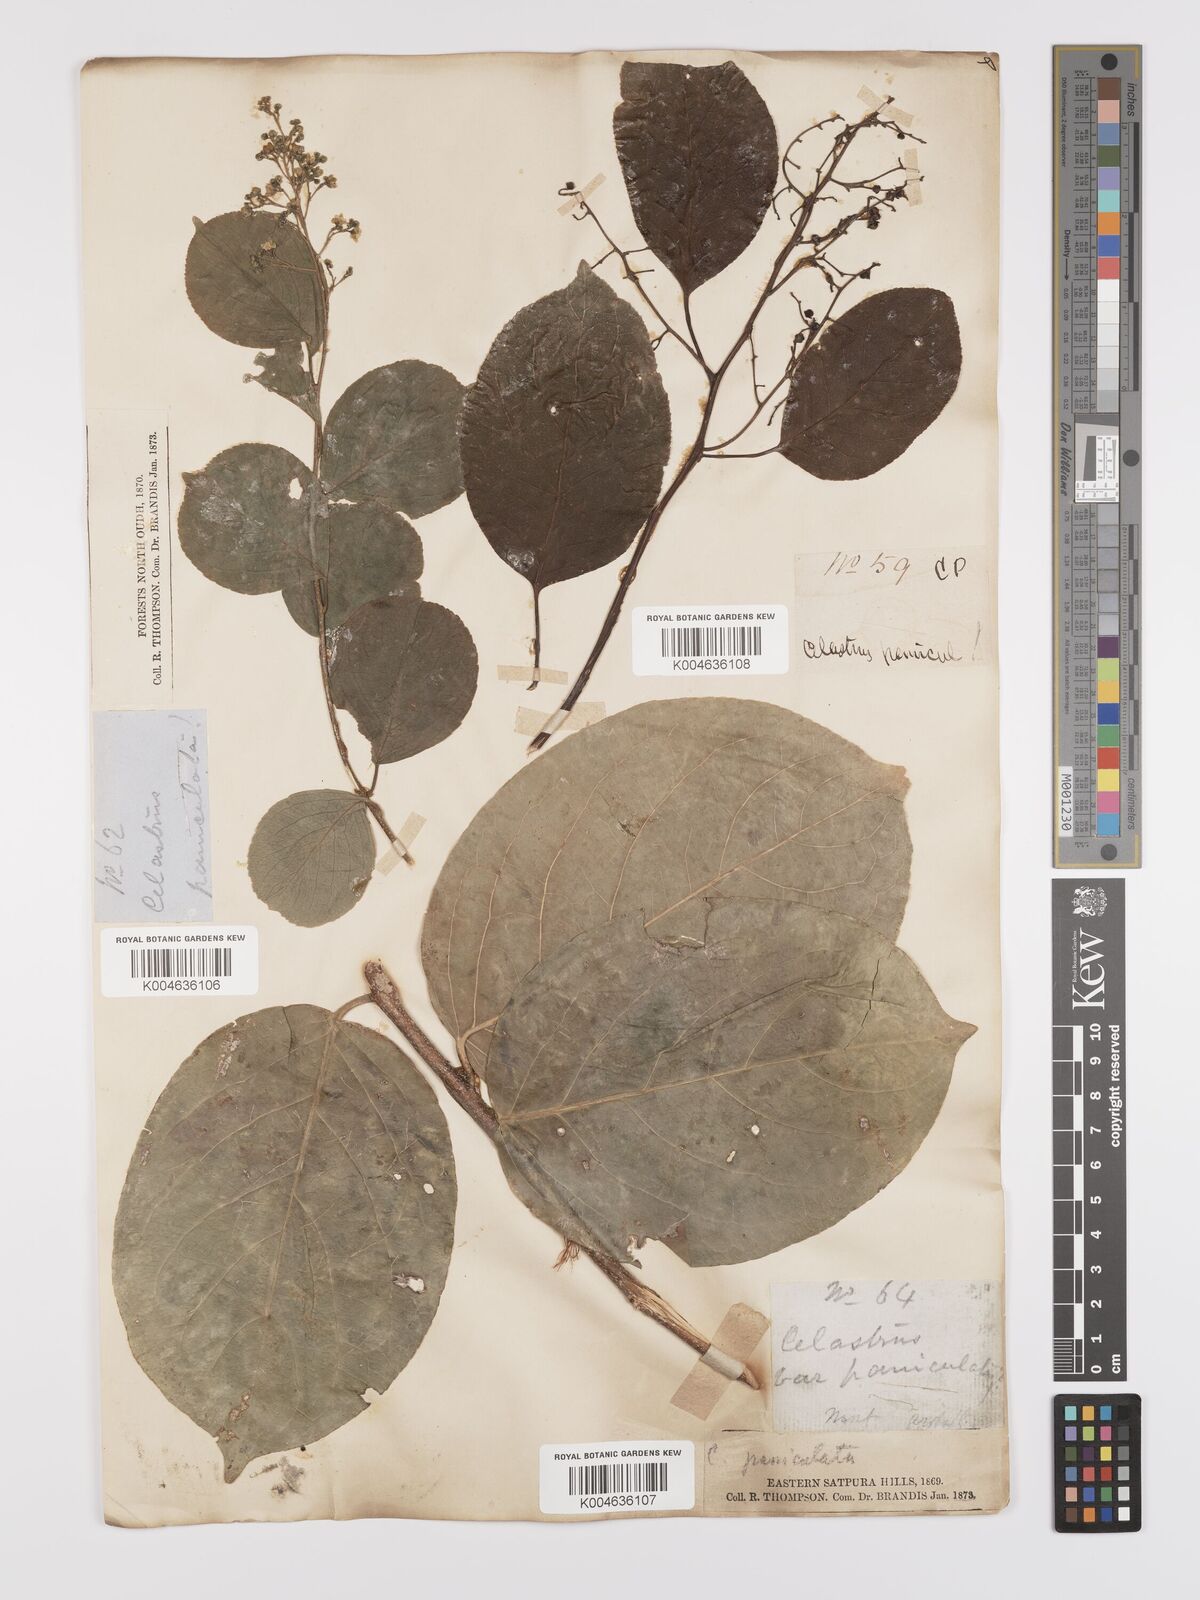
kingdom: Plantae
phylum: Tracheophyta
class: Magnoliopsida
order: Celastrales
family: Celastraceae
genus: Celastrus
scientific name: Celastrus paniculatus
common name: Oriental bittersweet; staff vine
